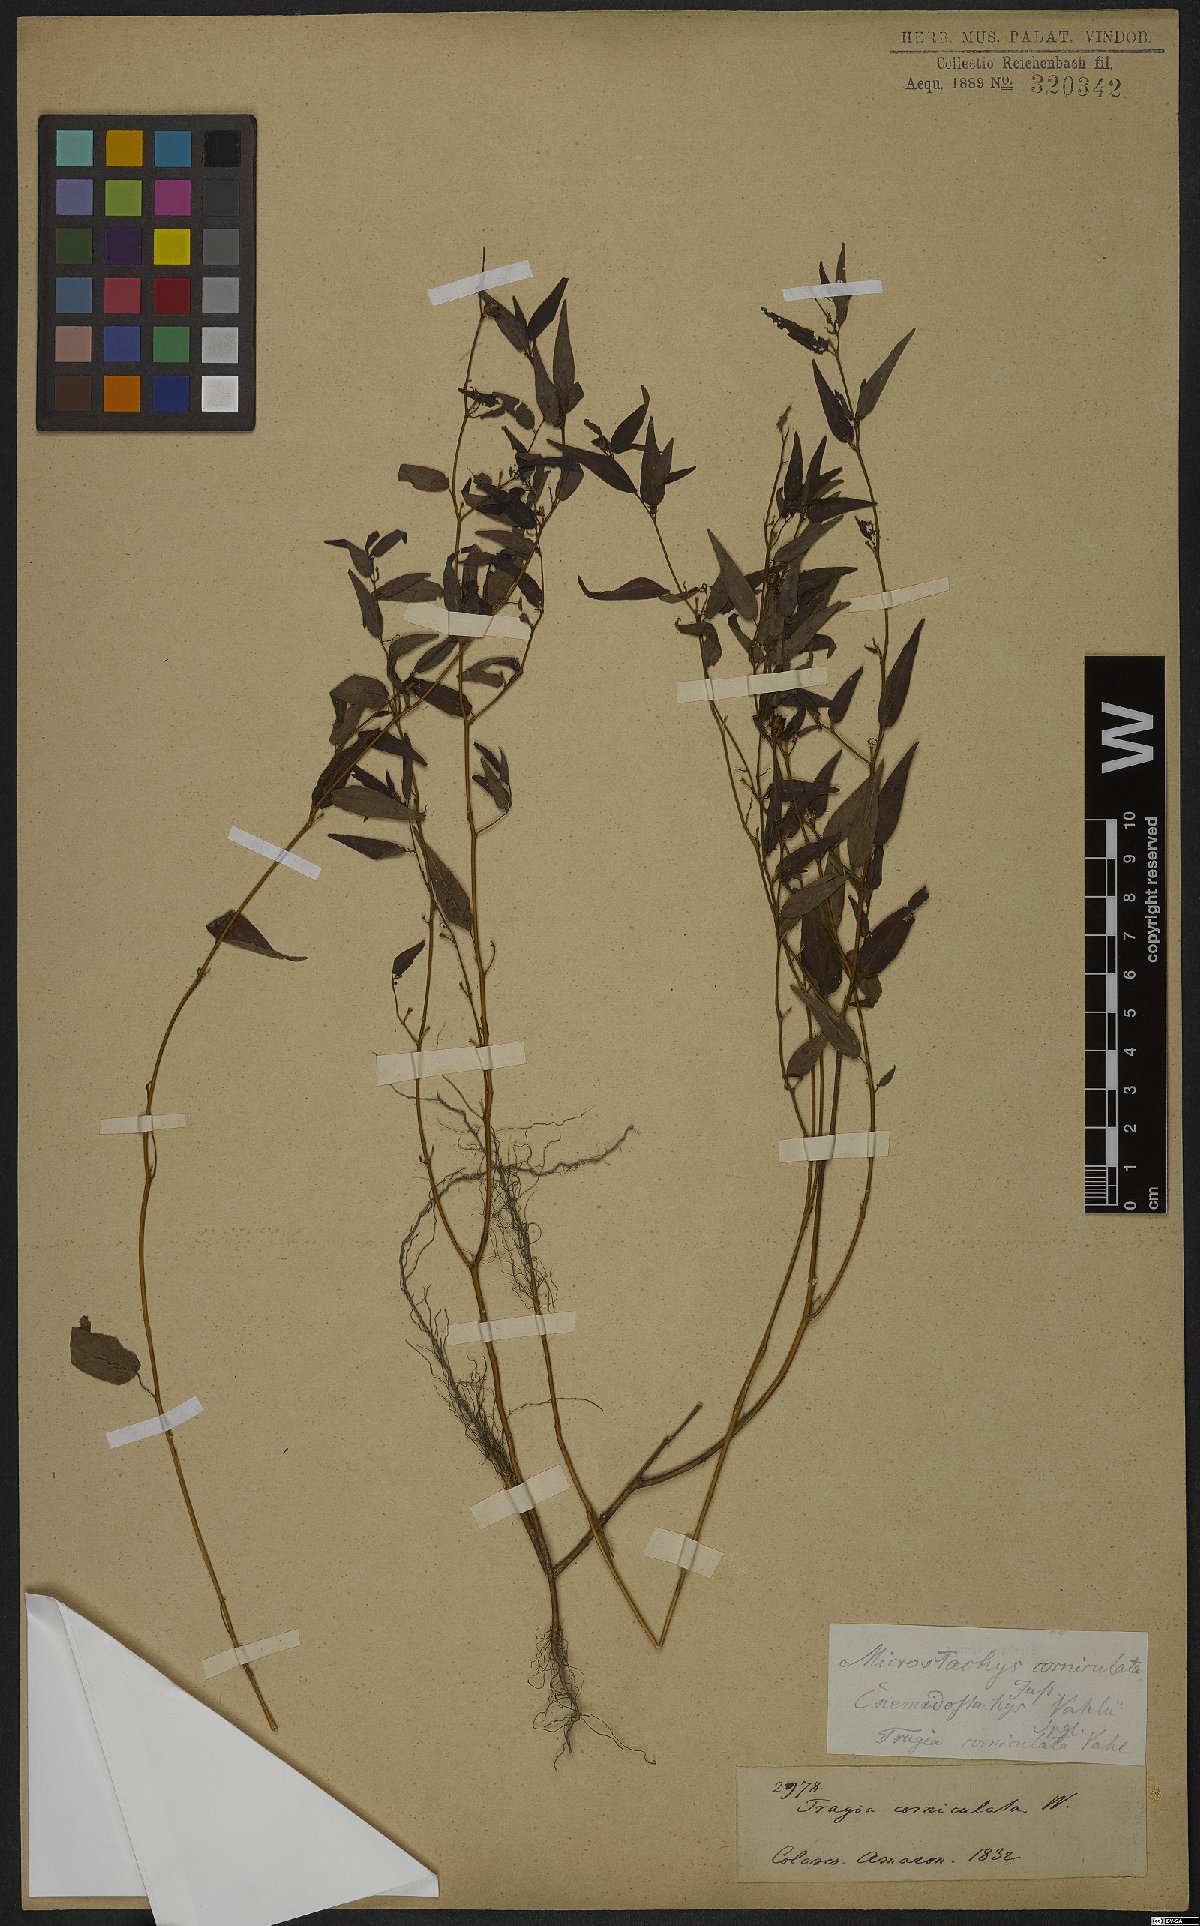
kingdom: Plantae
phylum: Tracheophyta
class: Magnoliopsida
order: Malpighiales
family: Euphorbiaceae
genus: Microstachys
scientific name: Microstachys corniculata
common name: Hato tejas
